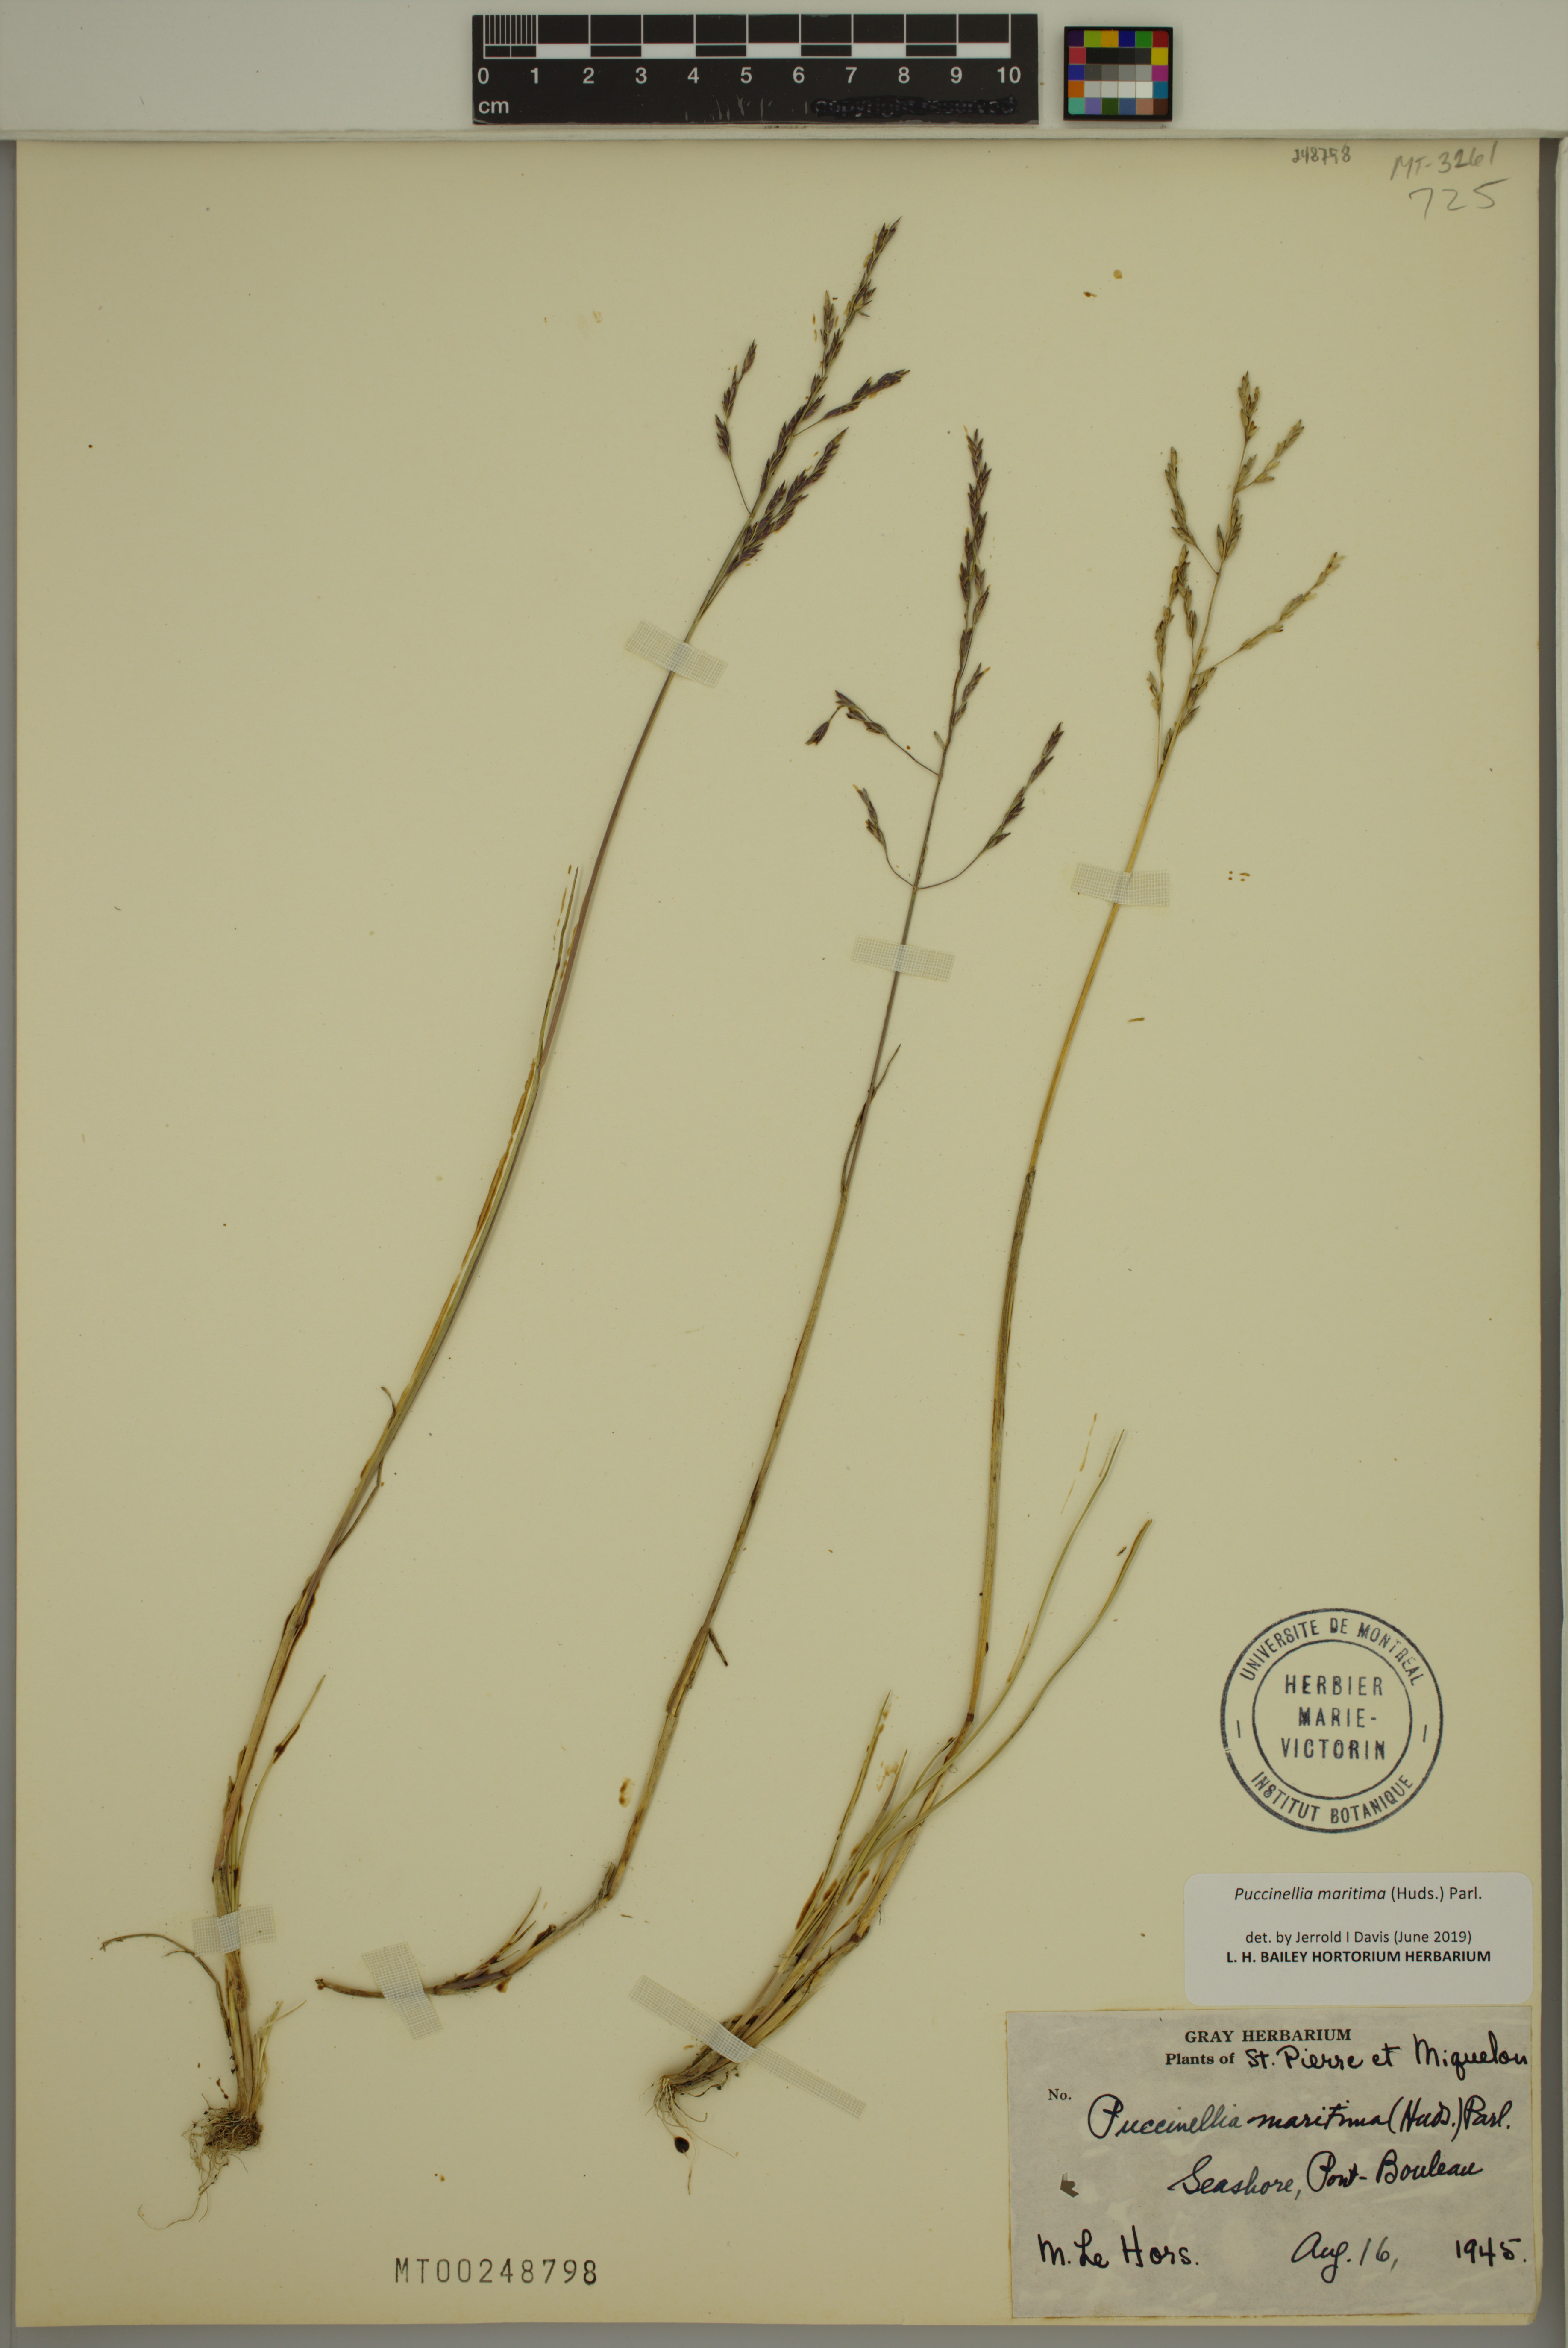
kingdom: Plantae
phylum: Tracheophyta
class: Liliopsida
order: Poales
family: Poaceae
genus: Puccinellia
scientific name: Puccinellia maritima
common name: Common saltmarsh grass
